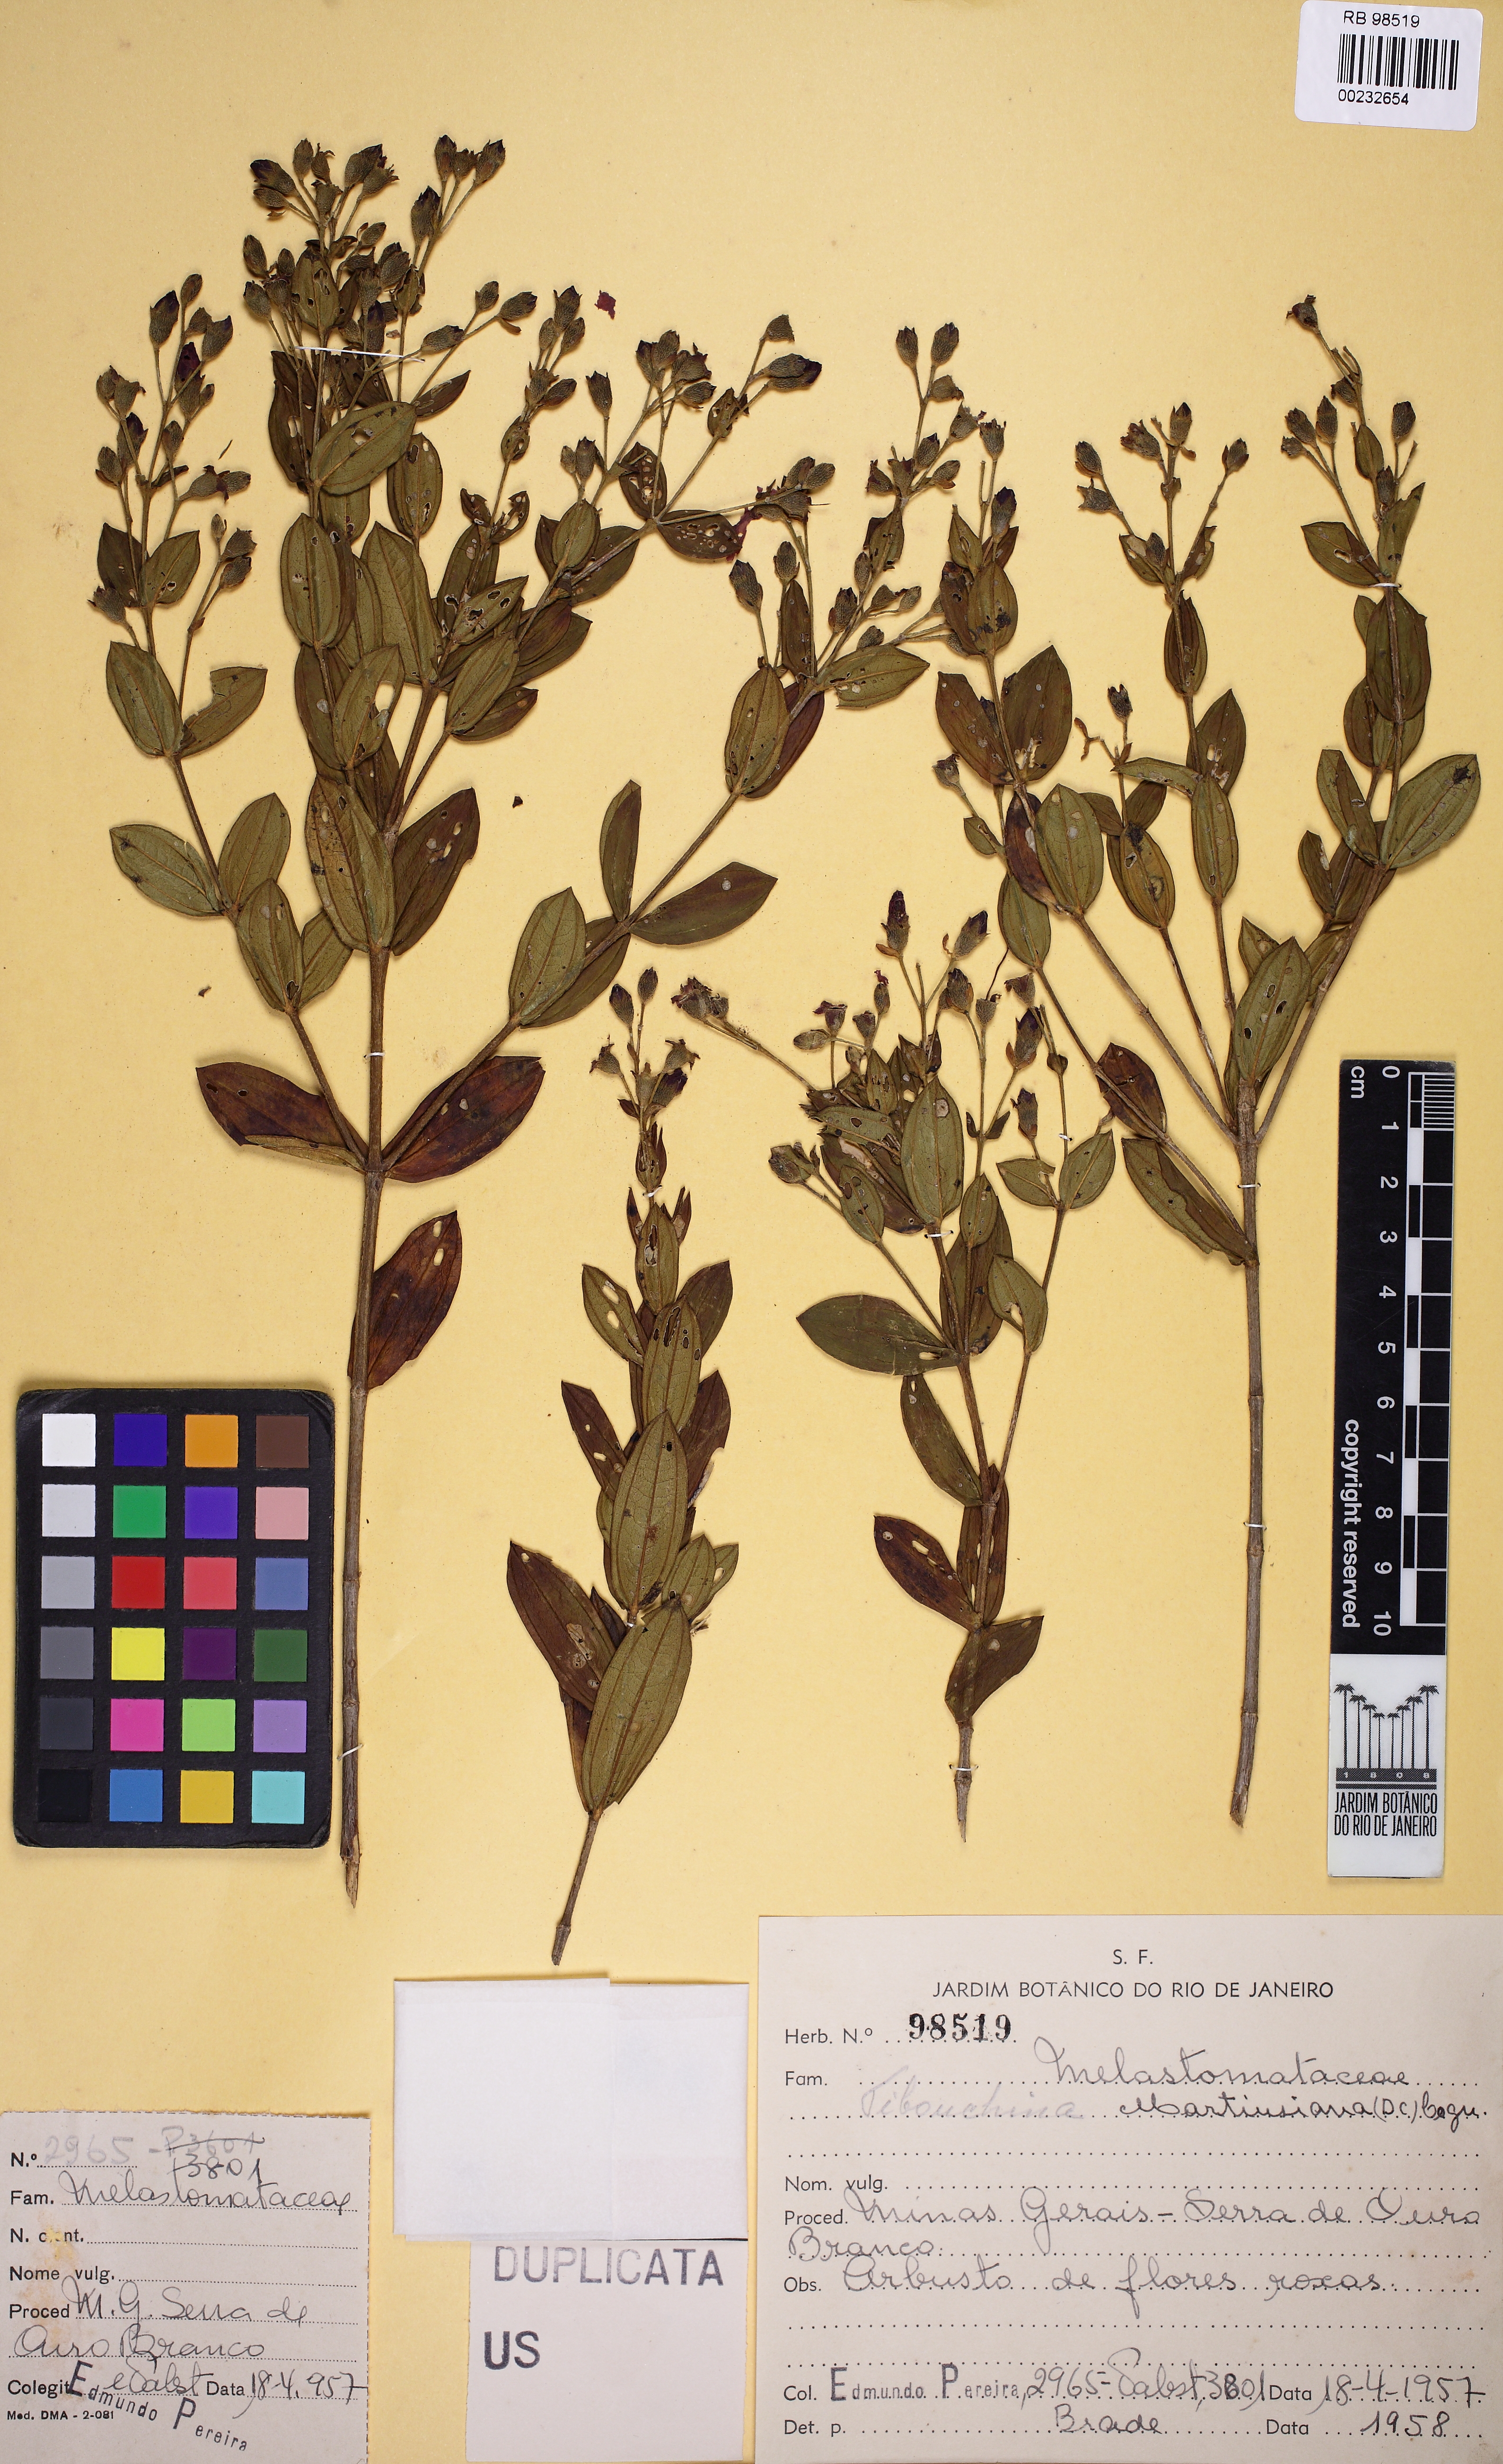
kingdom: Plantae
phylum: Tracheophyta
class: Magnoliopsida
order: Myrtales
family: Melastomataceae
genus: Pleroma
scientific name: Pleroma mutabile
